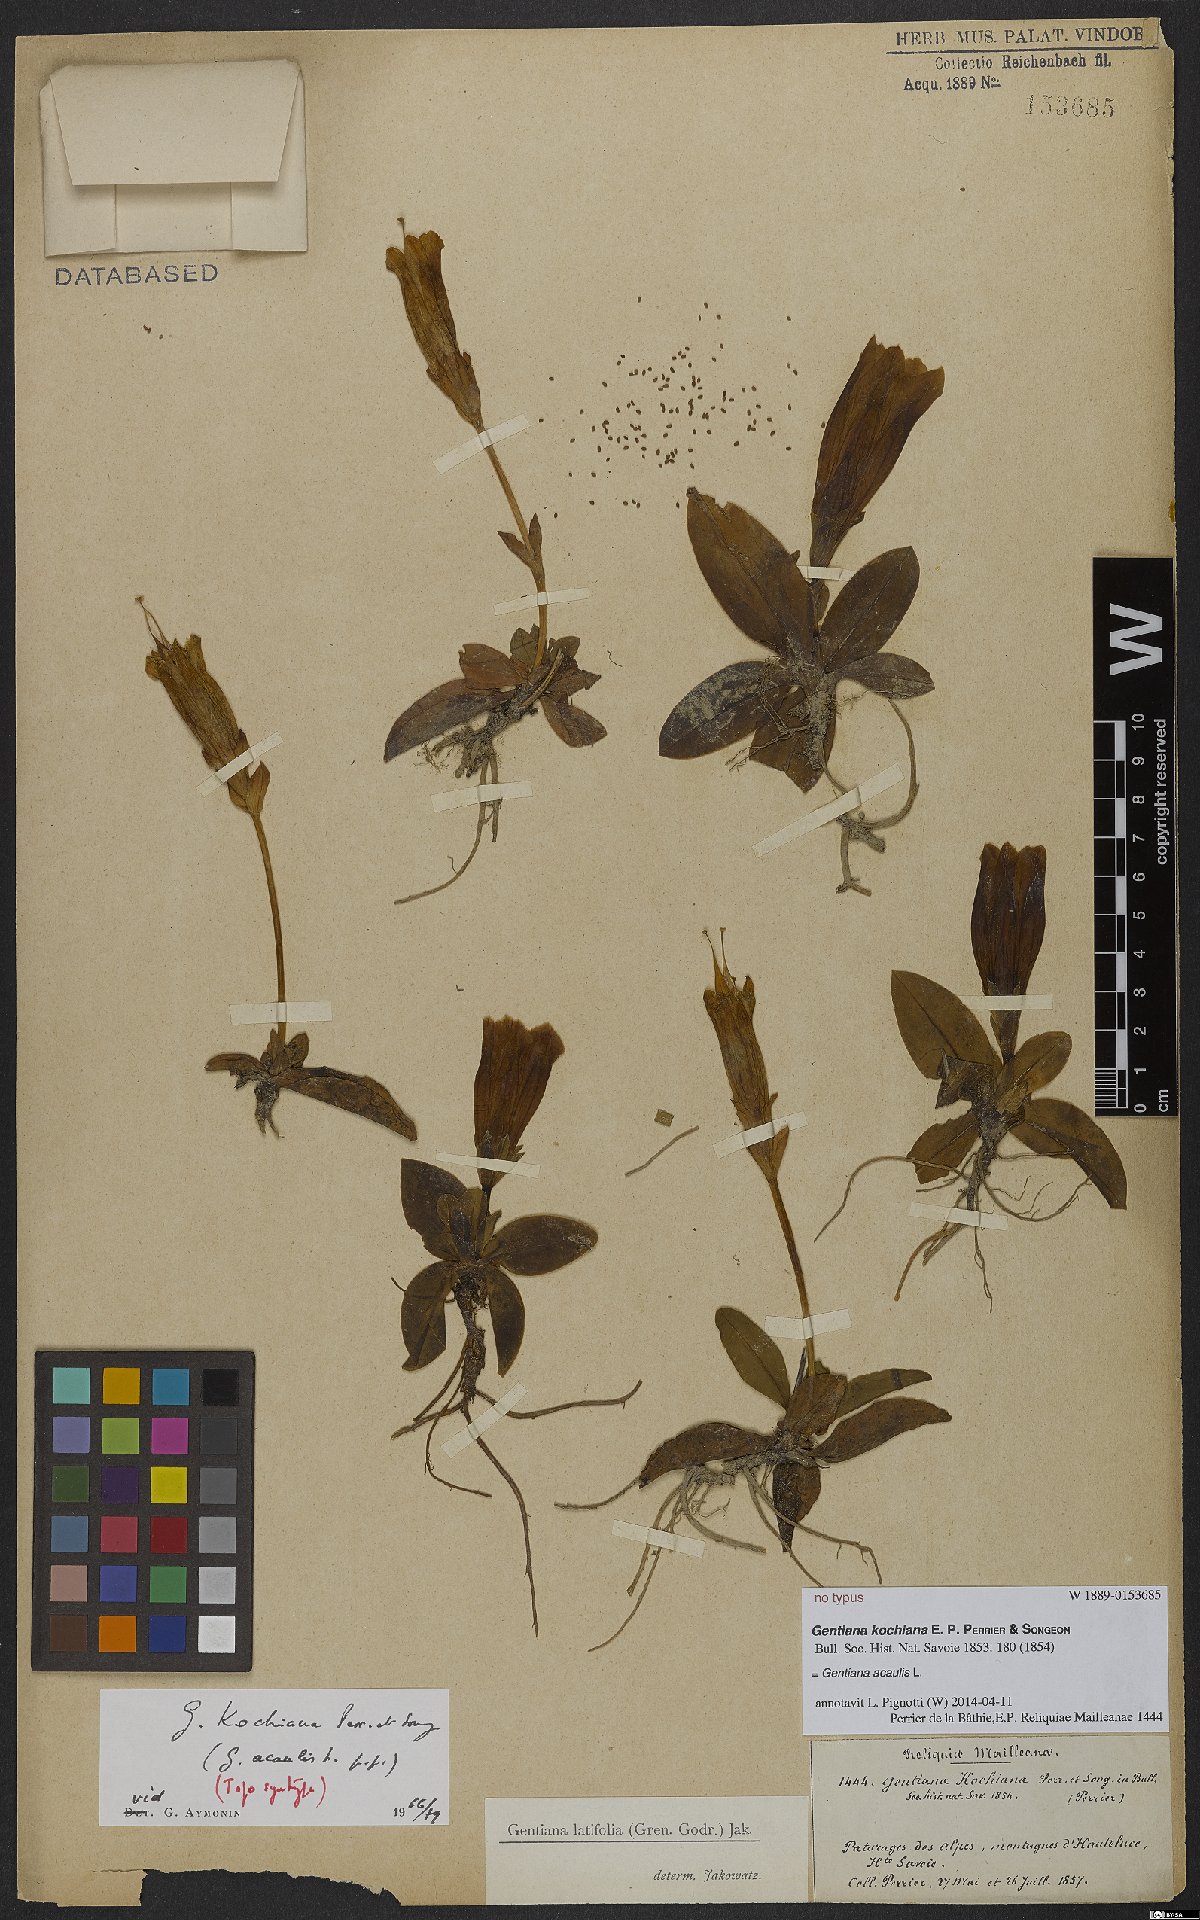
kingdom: Plantae
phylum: Tracheophyta
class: Magnoliopsida
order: Gentianales
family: Gentianaceae
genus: Gentiana
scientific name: Gentiana acaulis
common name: Trumpet gentian
